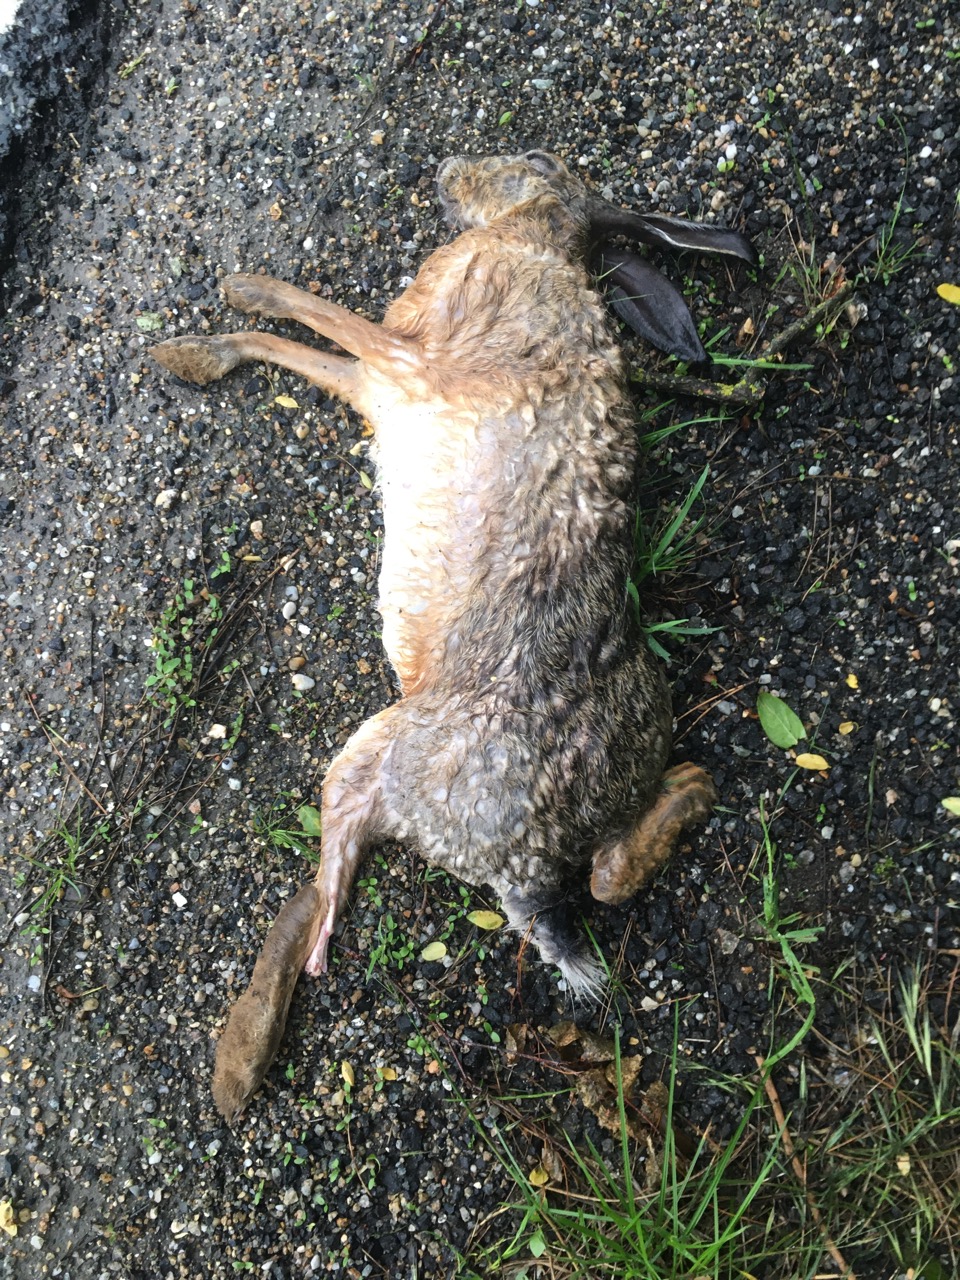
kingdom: Animalia
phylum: Chordata
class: Mammalia
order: Lagomorpha
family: Leporidae
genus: Lepus
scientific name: Lepus europaeus
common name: European hare
